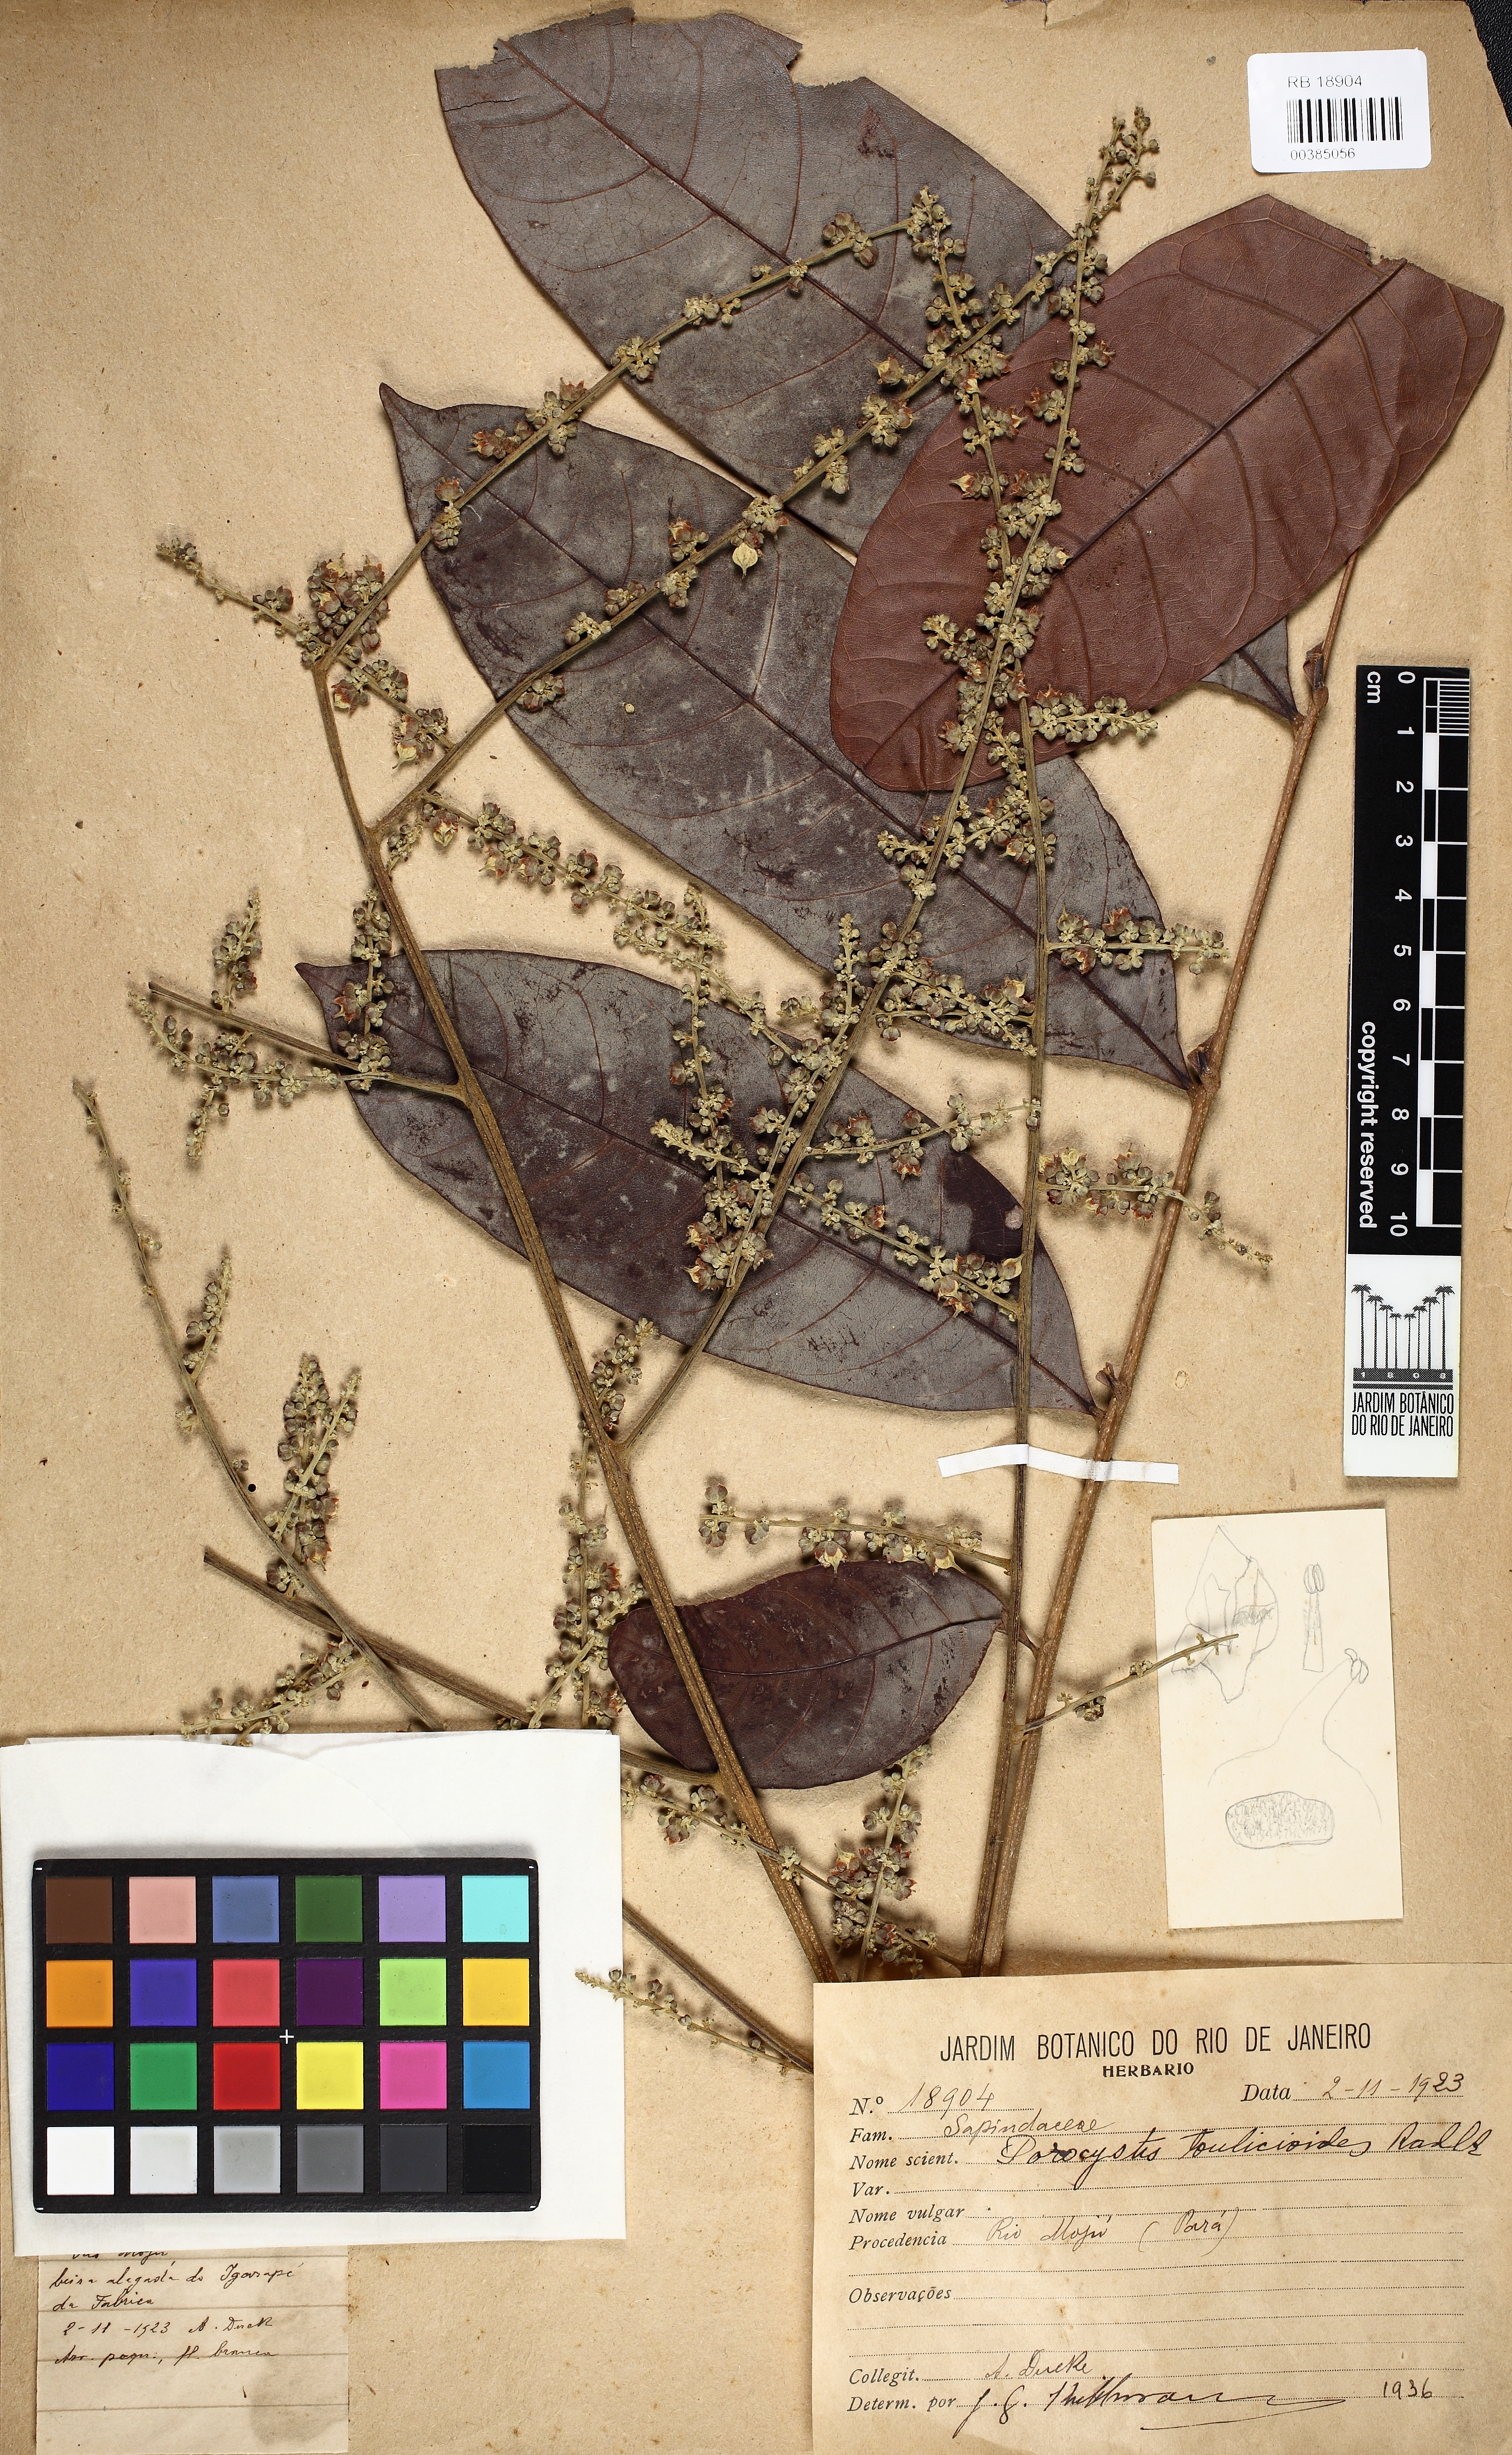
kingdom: Plantae
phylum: Tracheophyta
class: Magnoliopsida
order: Sapindales
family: Sapindaceae
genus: Porocystis
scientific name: Porocystis toulicioides
